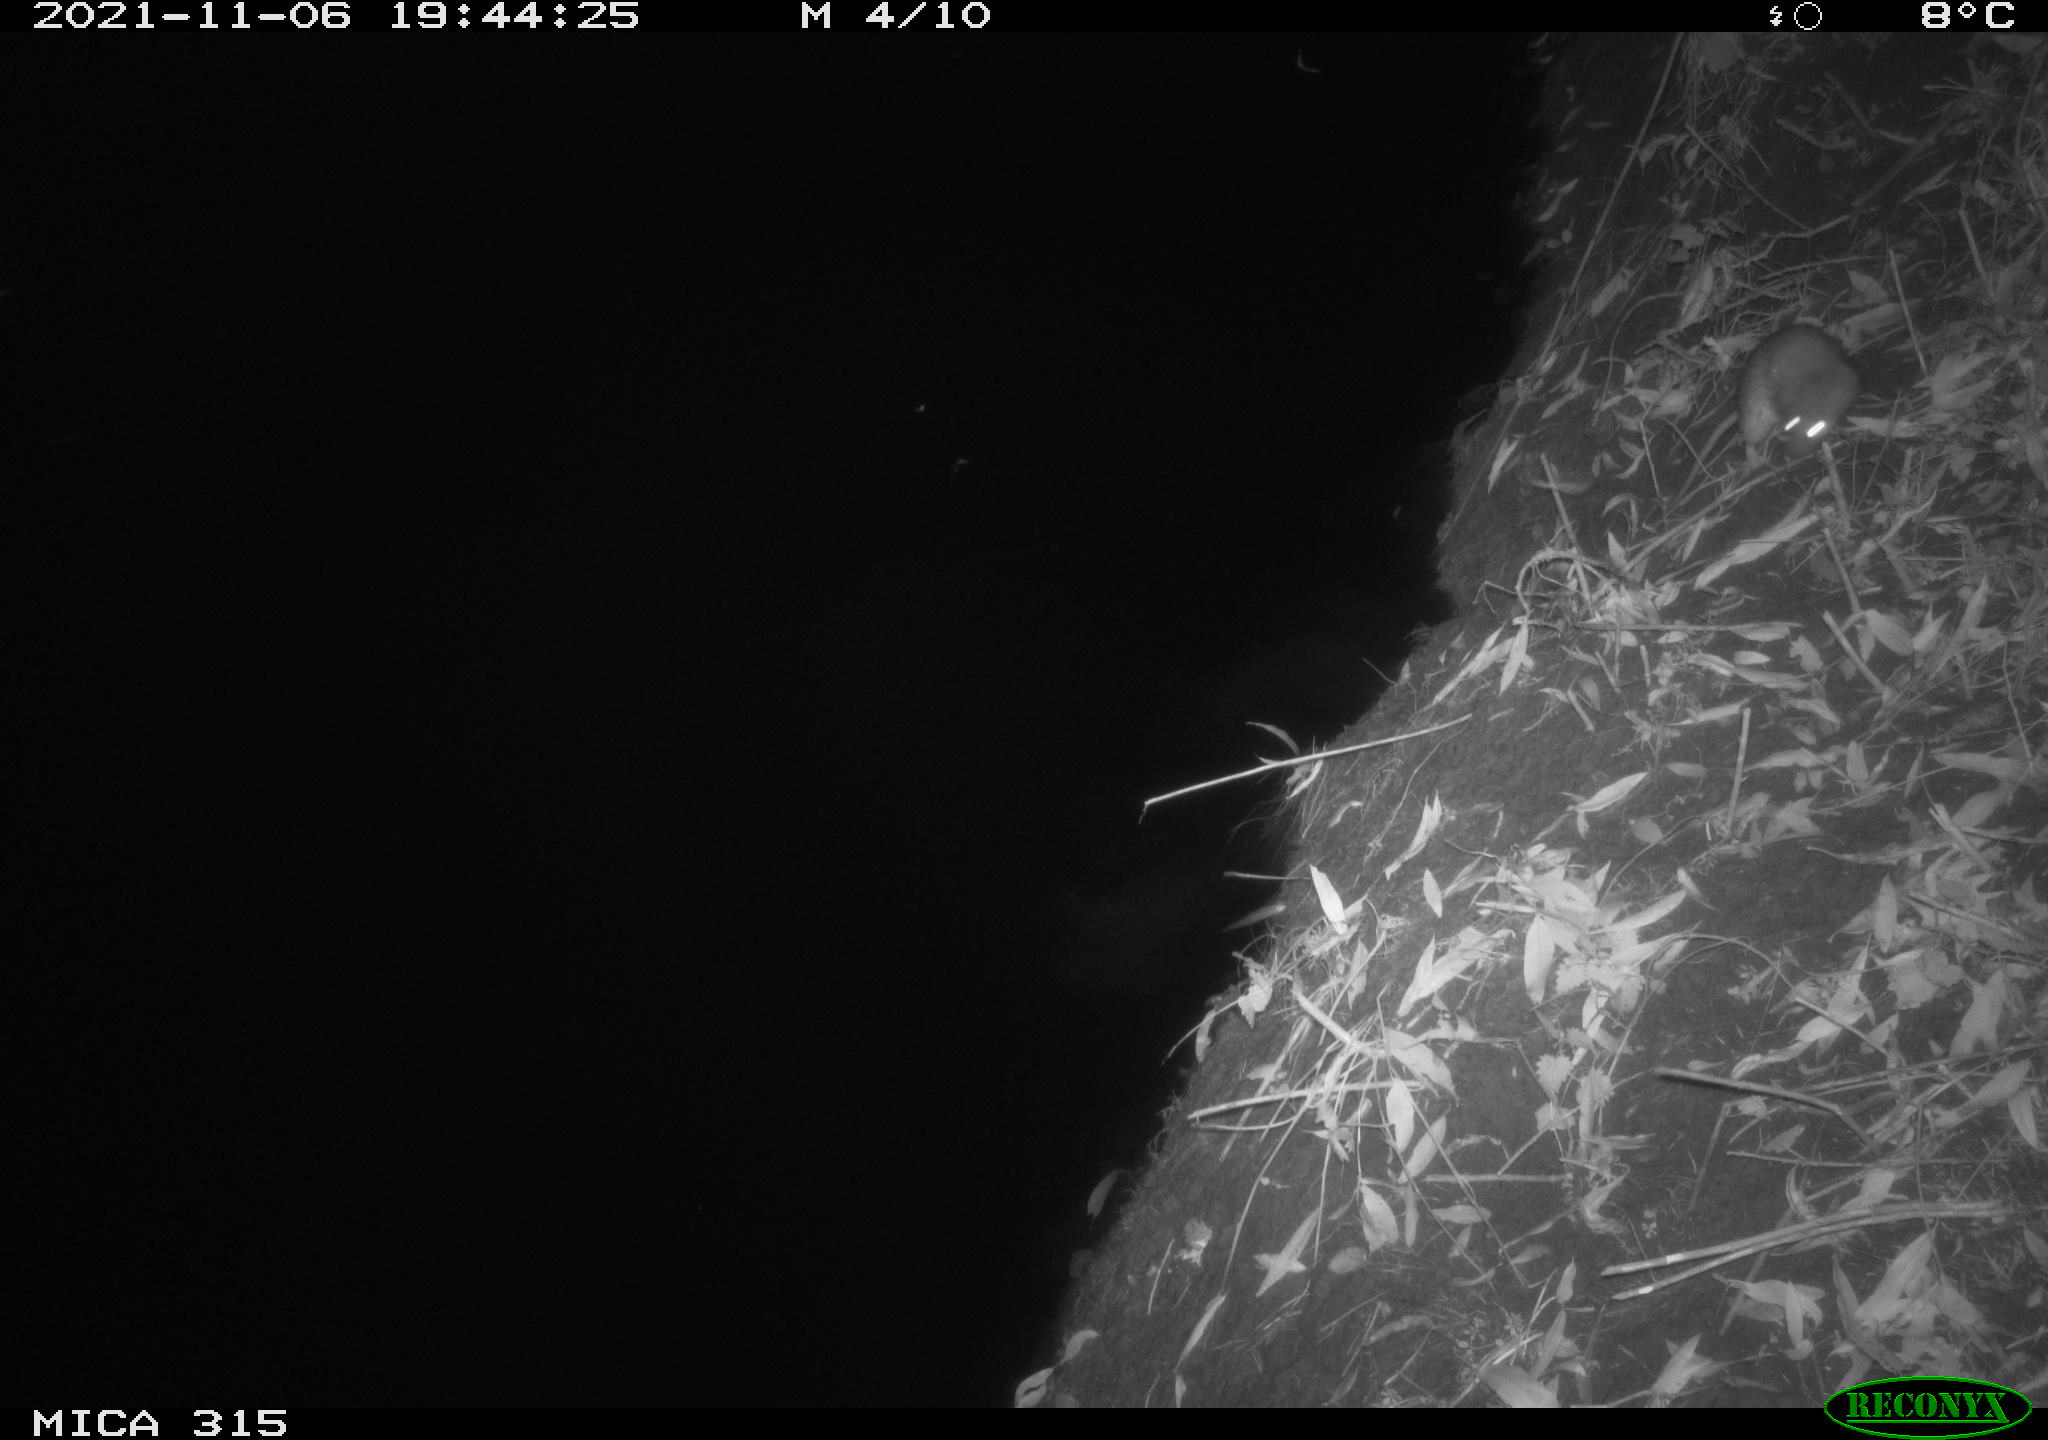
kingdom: Animalia
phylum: Chordata
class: Mammalia
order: Rodentia
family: Muridae
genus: Rattus
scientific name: Rattus norvegicus
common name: Brown rat
